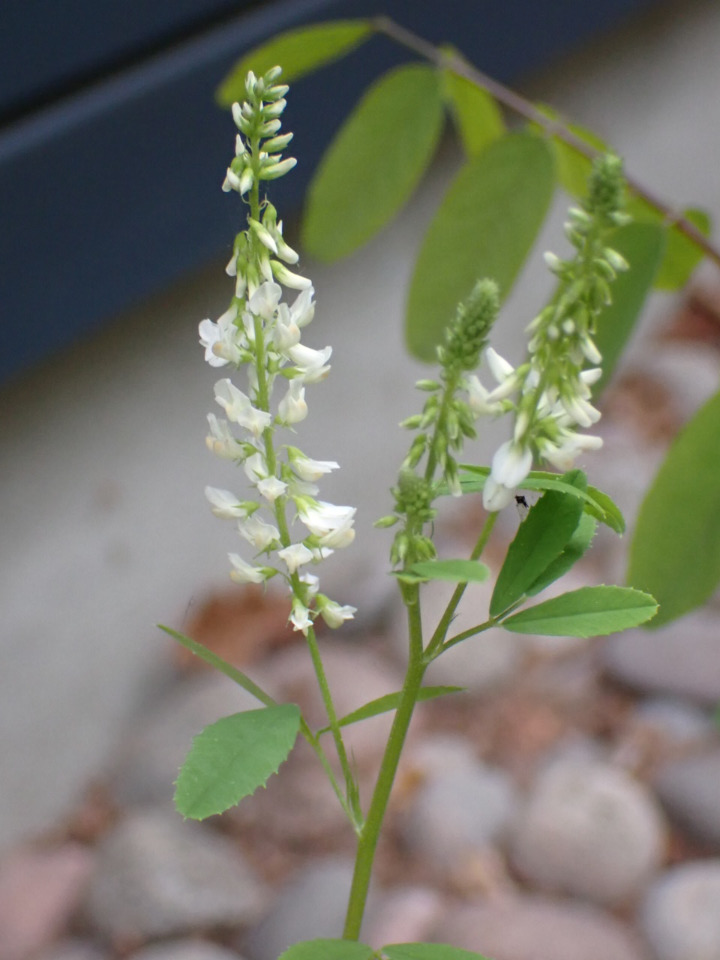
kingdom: Plantae
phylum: Tracheophyta
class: Magnoliopsida
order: Fabales
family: Fabaceae
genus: Melilotus
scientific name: Melilotus albus
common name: Hvid stenkløver
